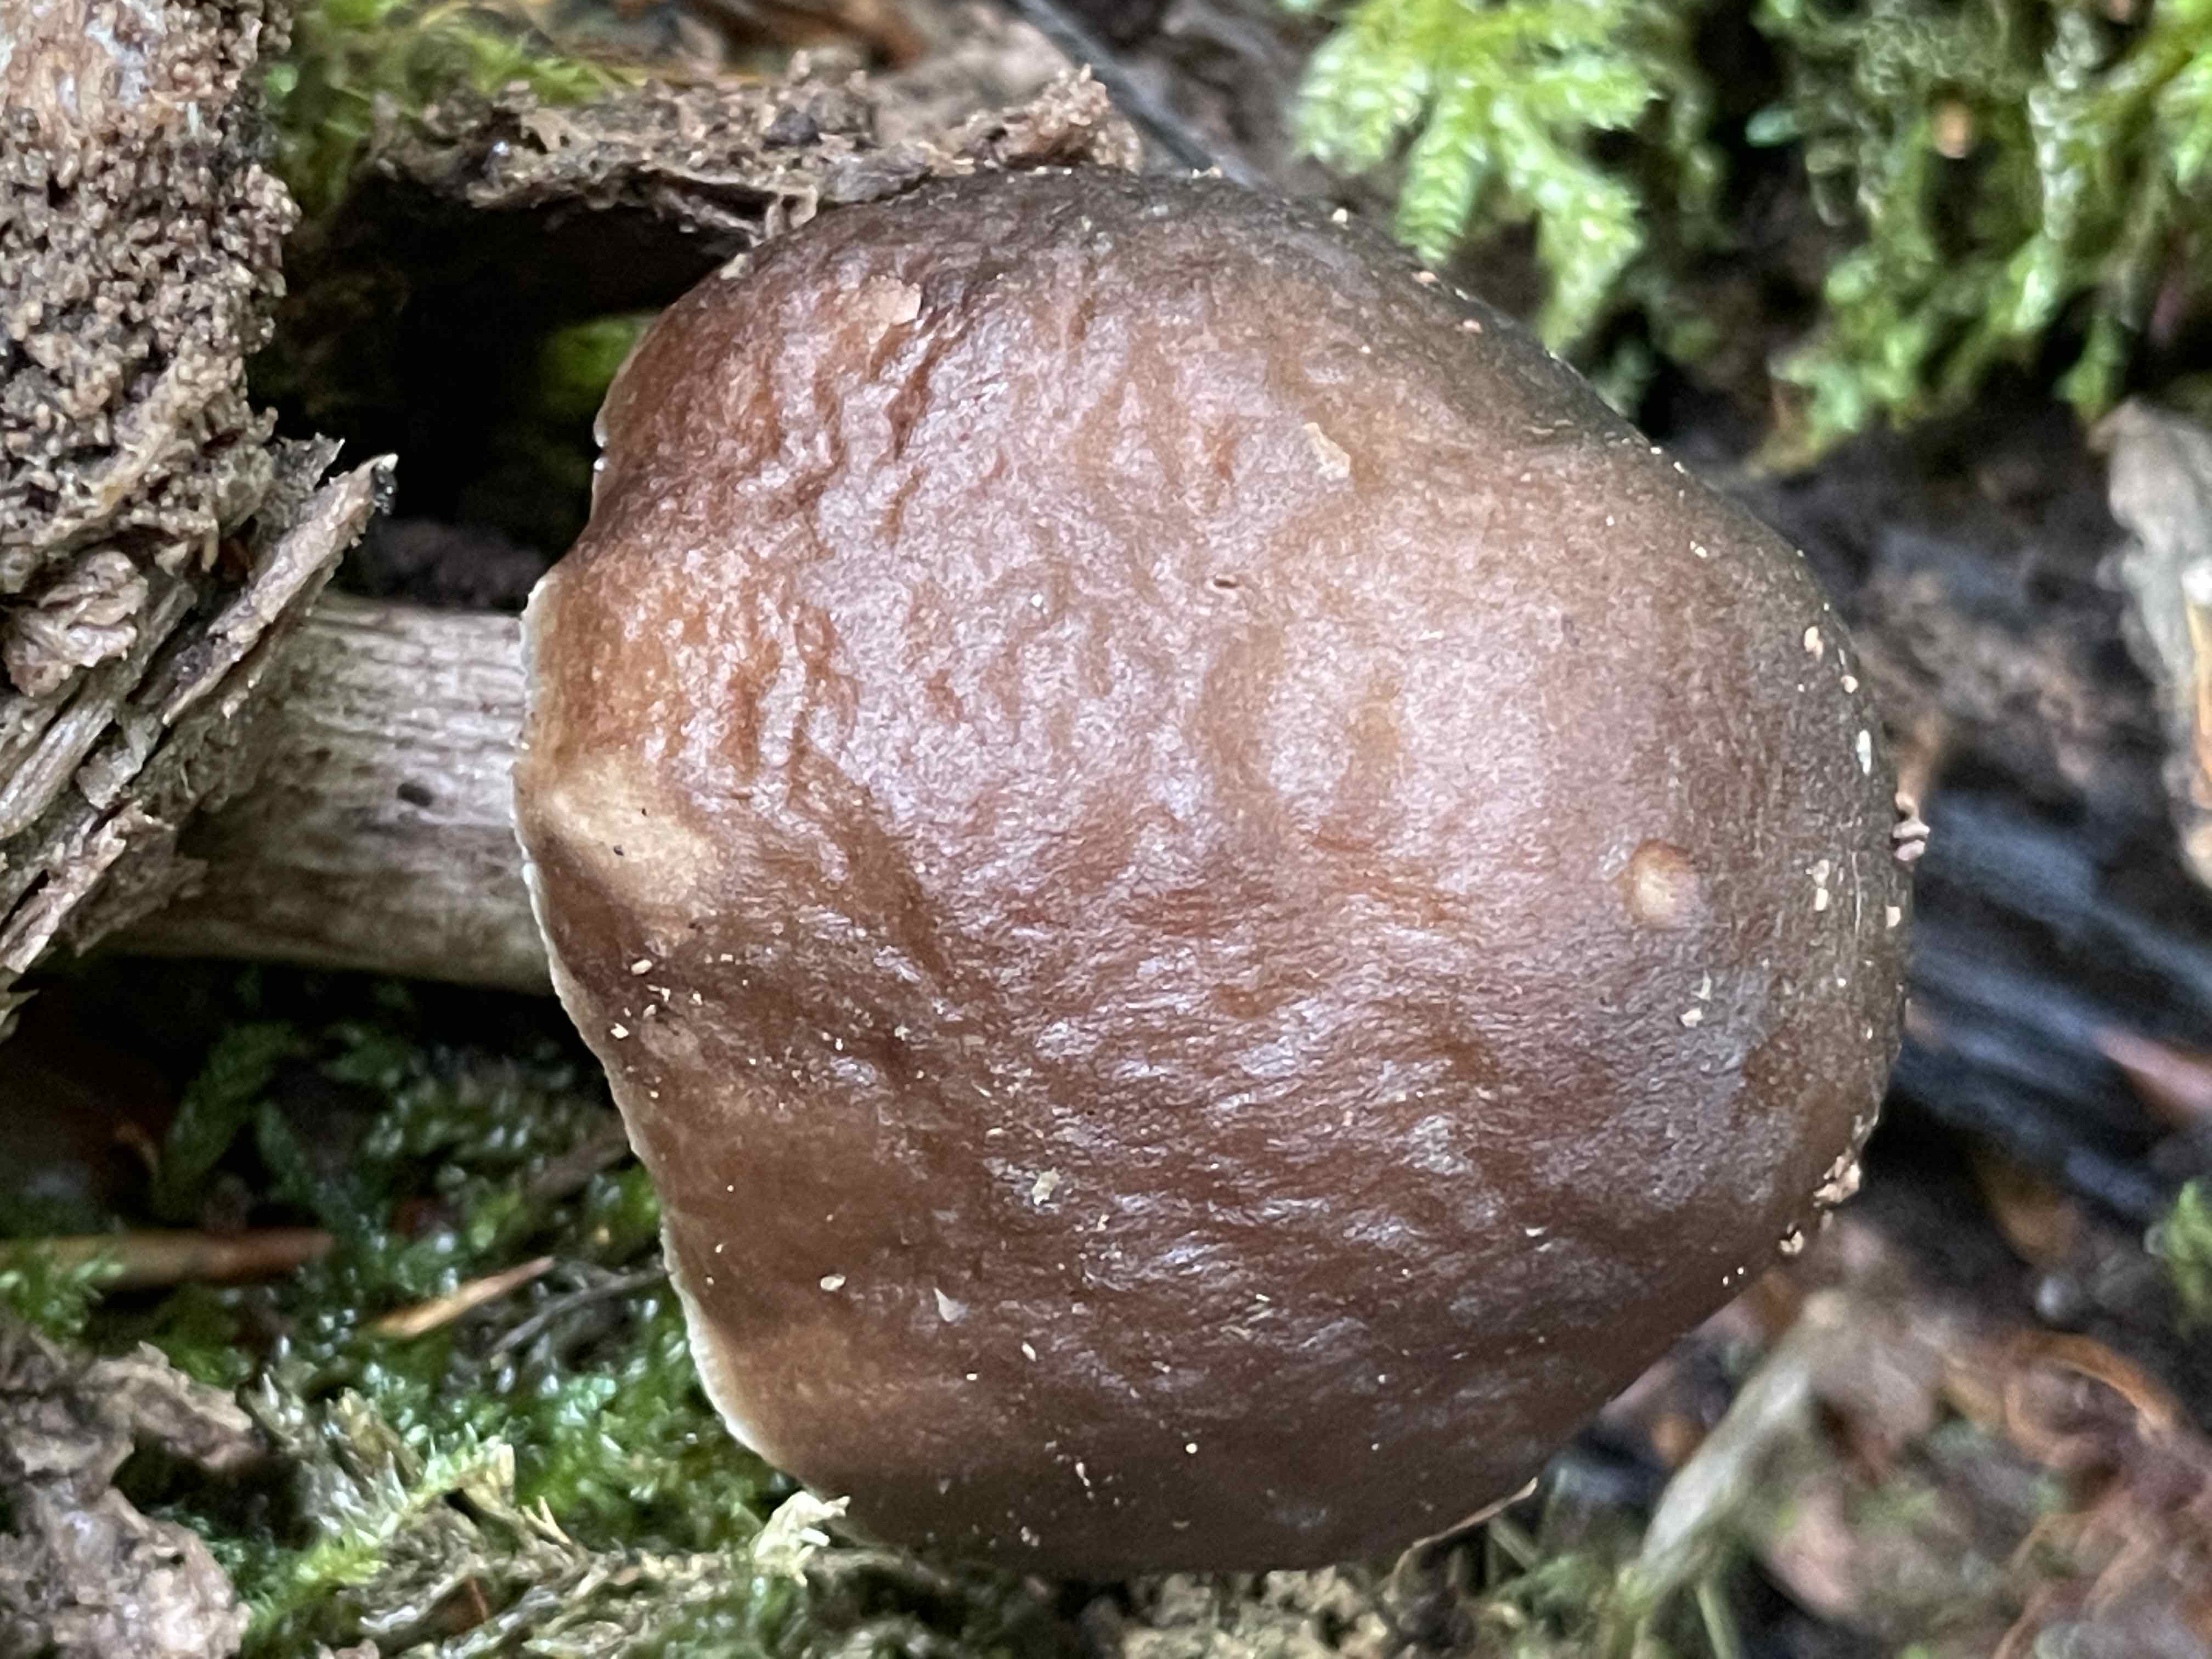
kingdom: Fungi
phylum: Basidiomycota
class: Agaricomycetes
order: Agaricales
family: Pluteaceae
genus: Pluteus
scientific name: Pluteus cervinus
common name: sodfarvet skærmhat
